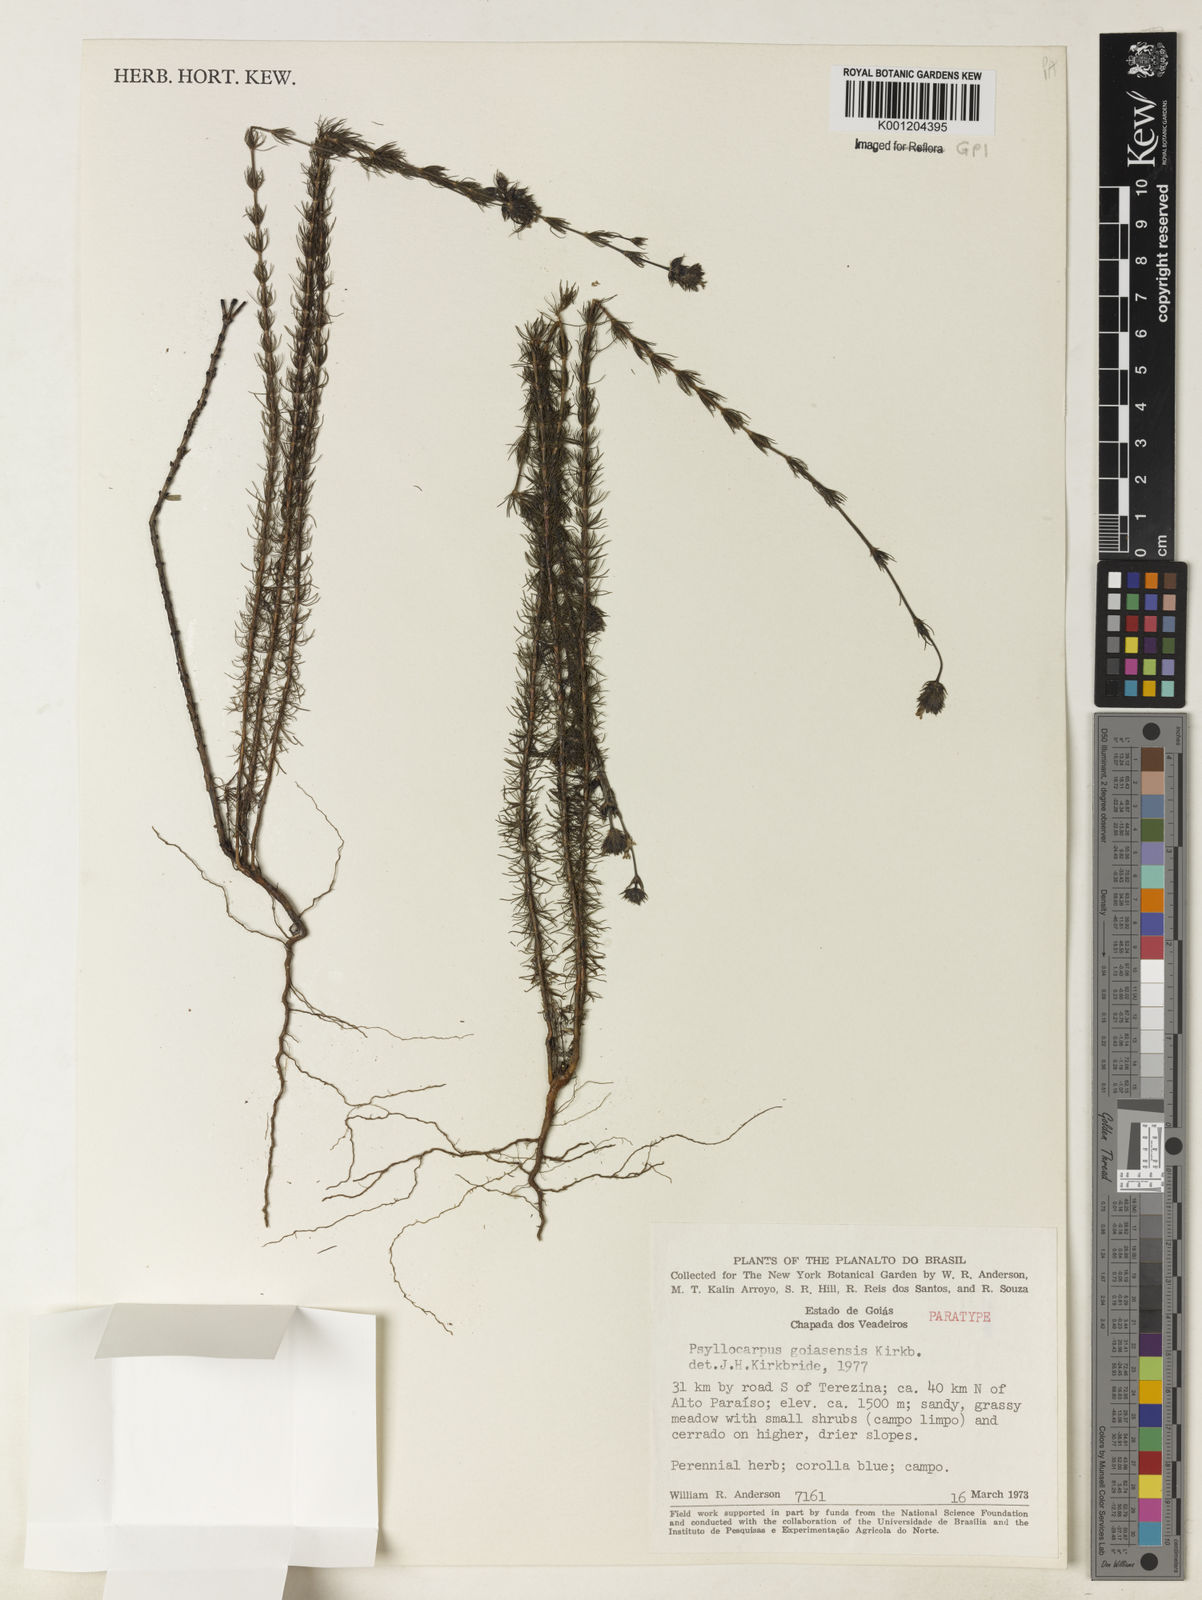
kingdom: Plantae
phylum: Tracheophyta
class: Magnoliopsida
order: Gentianales
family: Rubiaceae
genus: Psyllocarpus
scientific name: Psyllocarpus goiasensis
